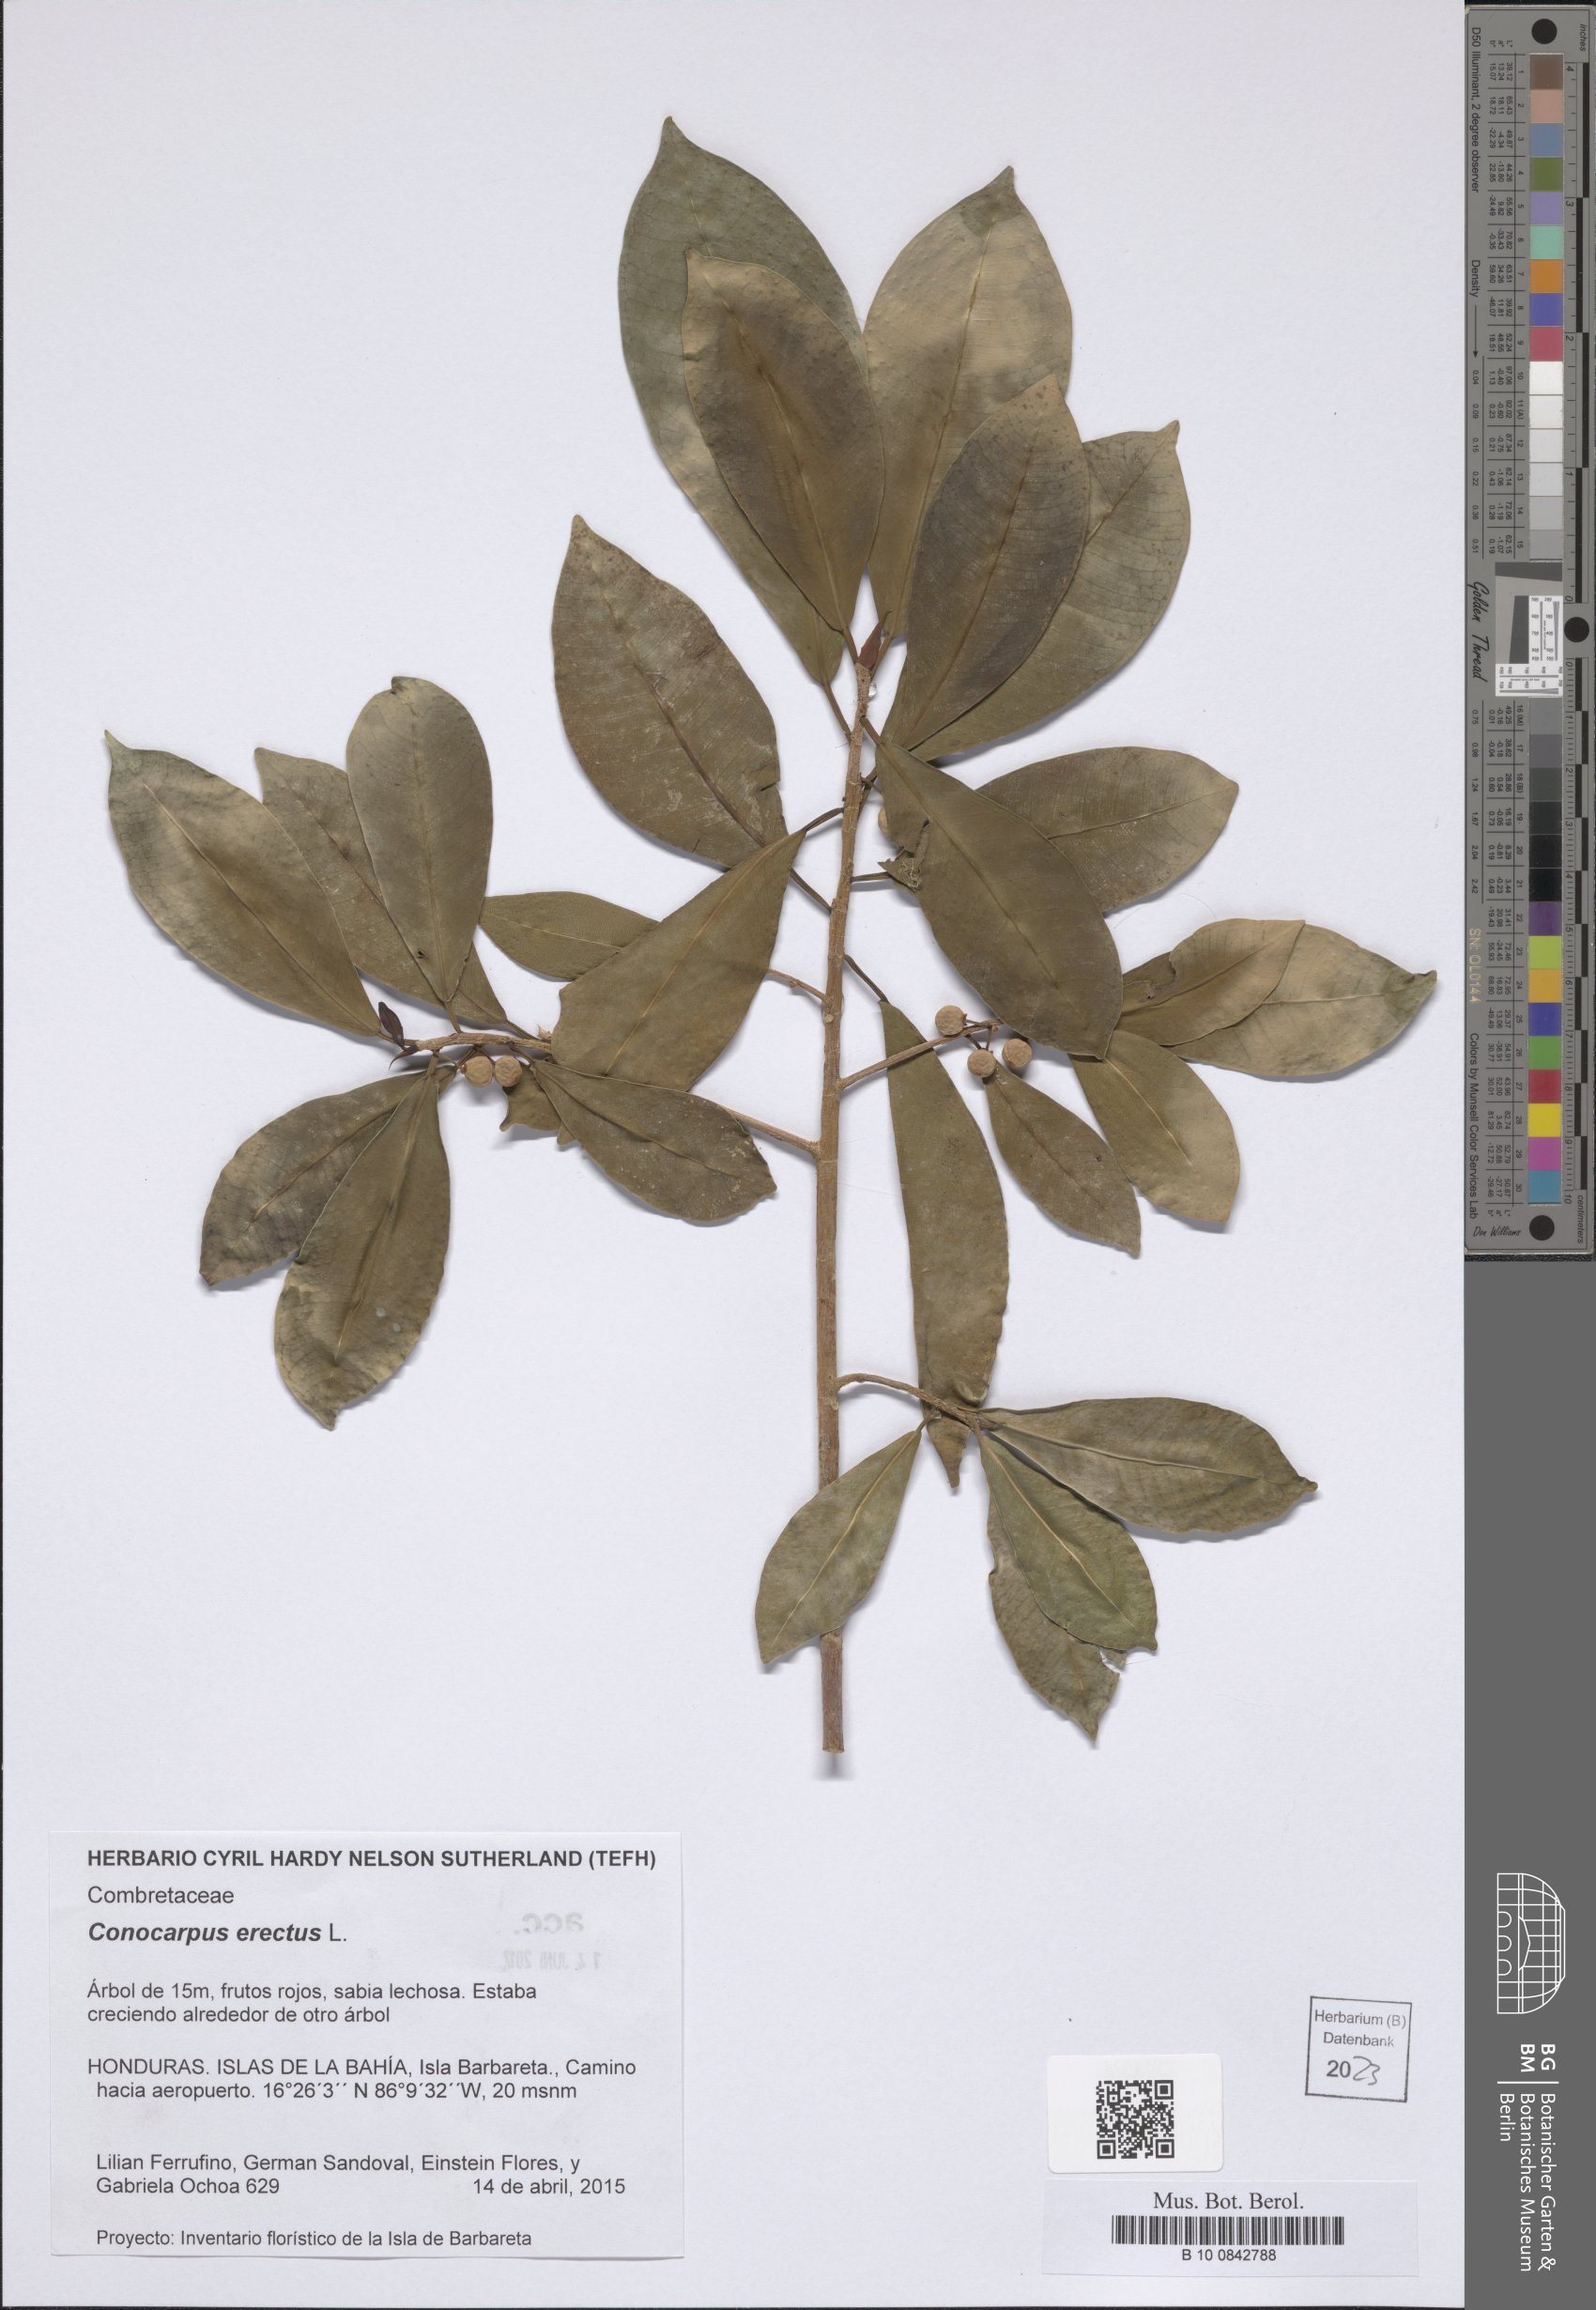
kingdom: Plantae
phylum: Tracheophyta
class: Magnoliopsida
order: Myrtales
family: Combretaceae
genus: Conocarpus
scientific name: Conocarpus erectus
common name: Button mangrove
